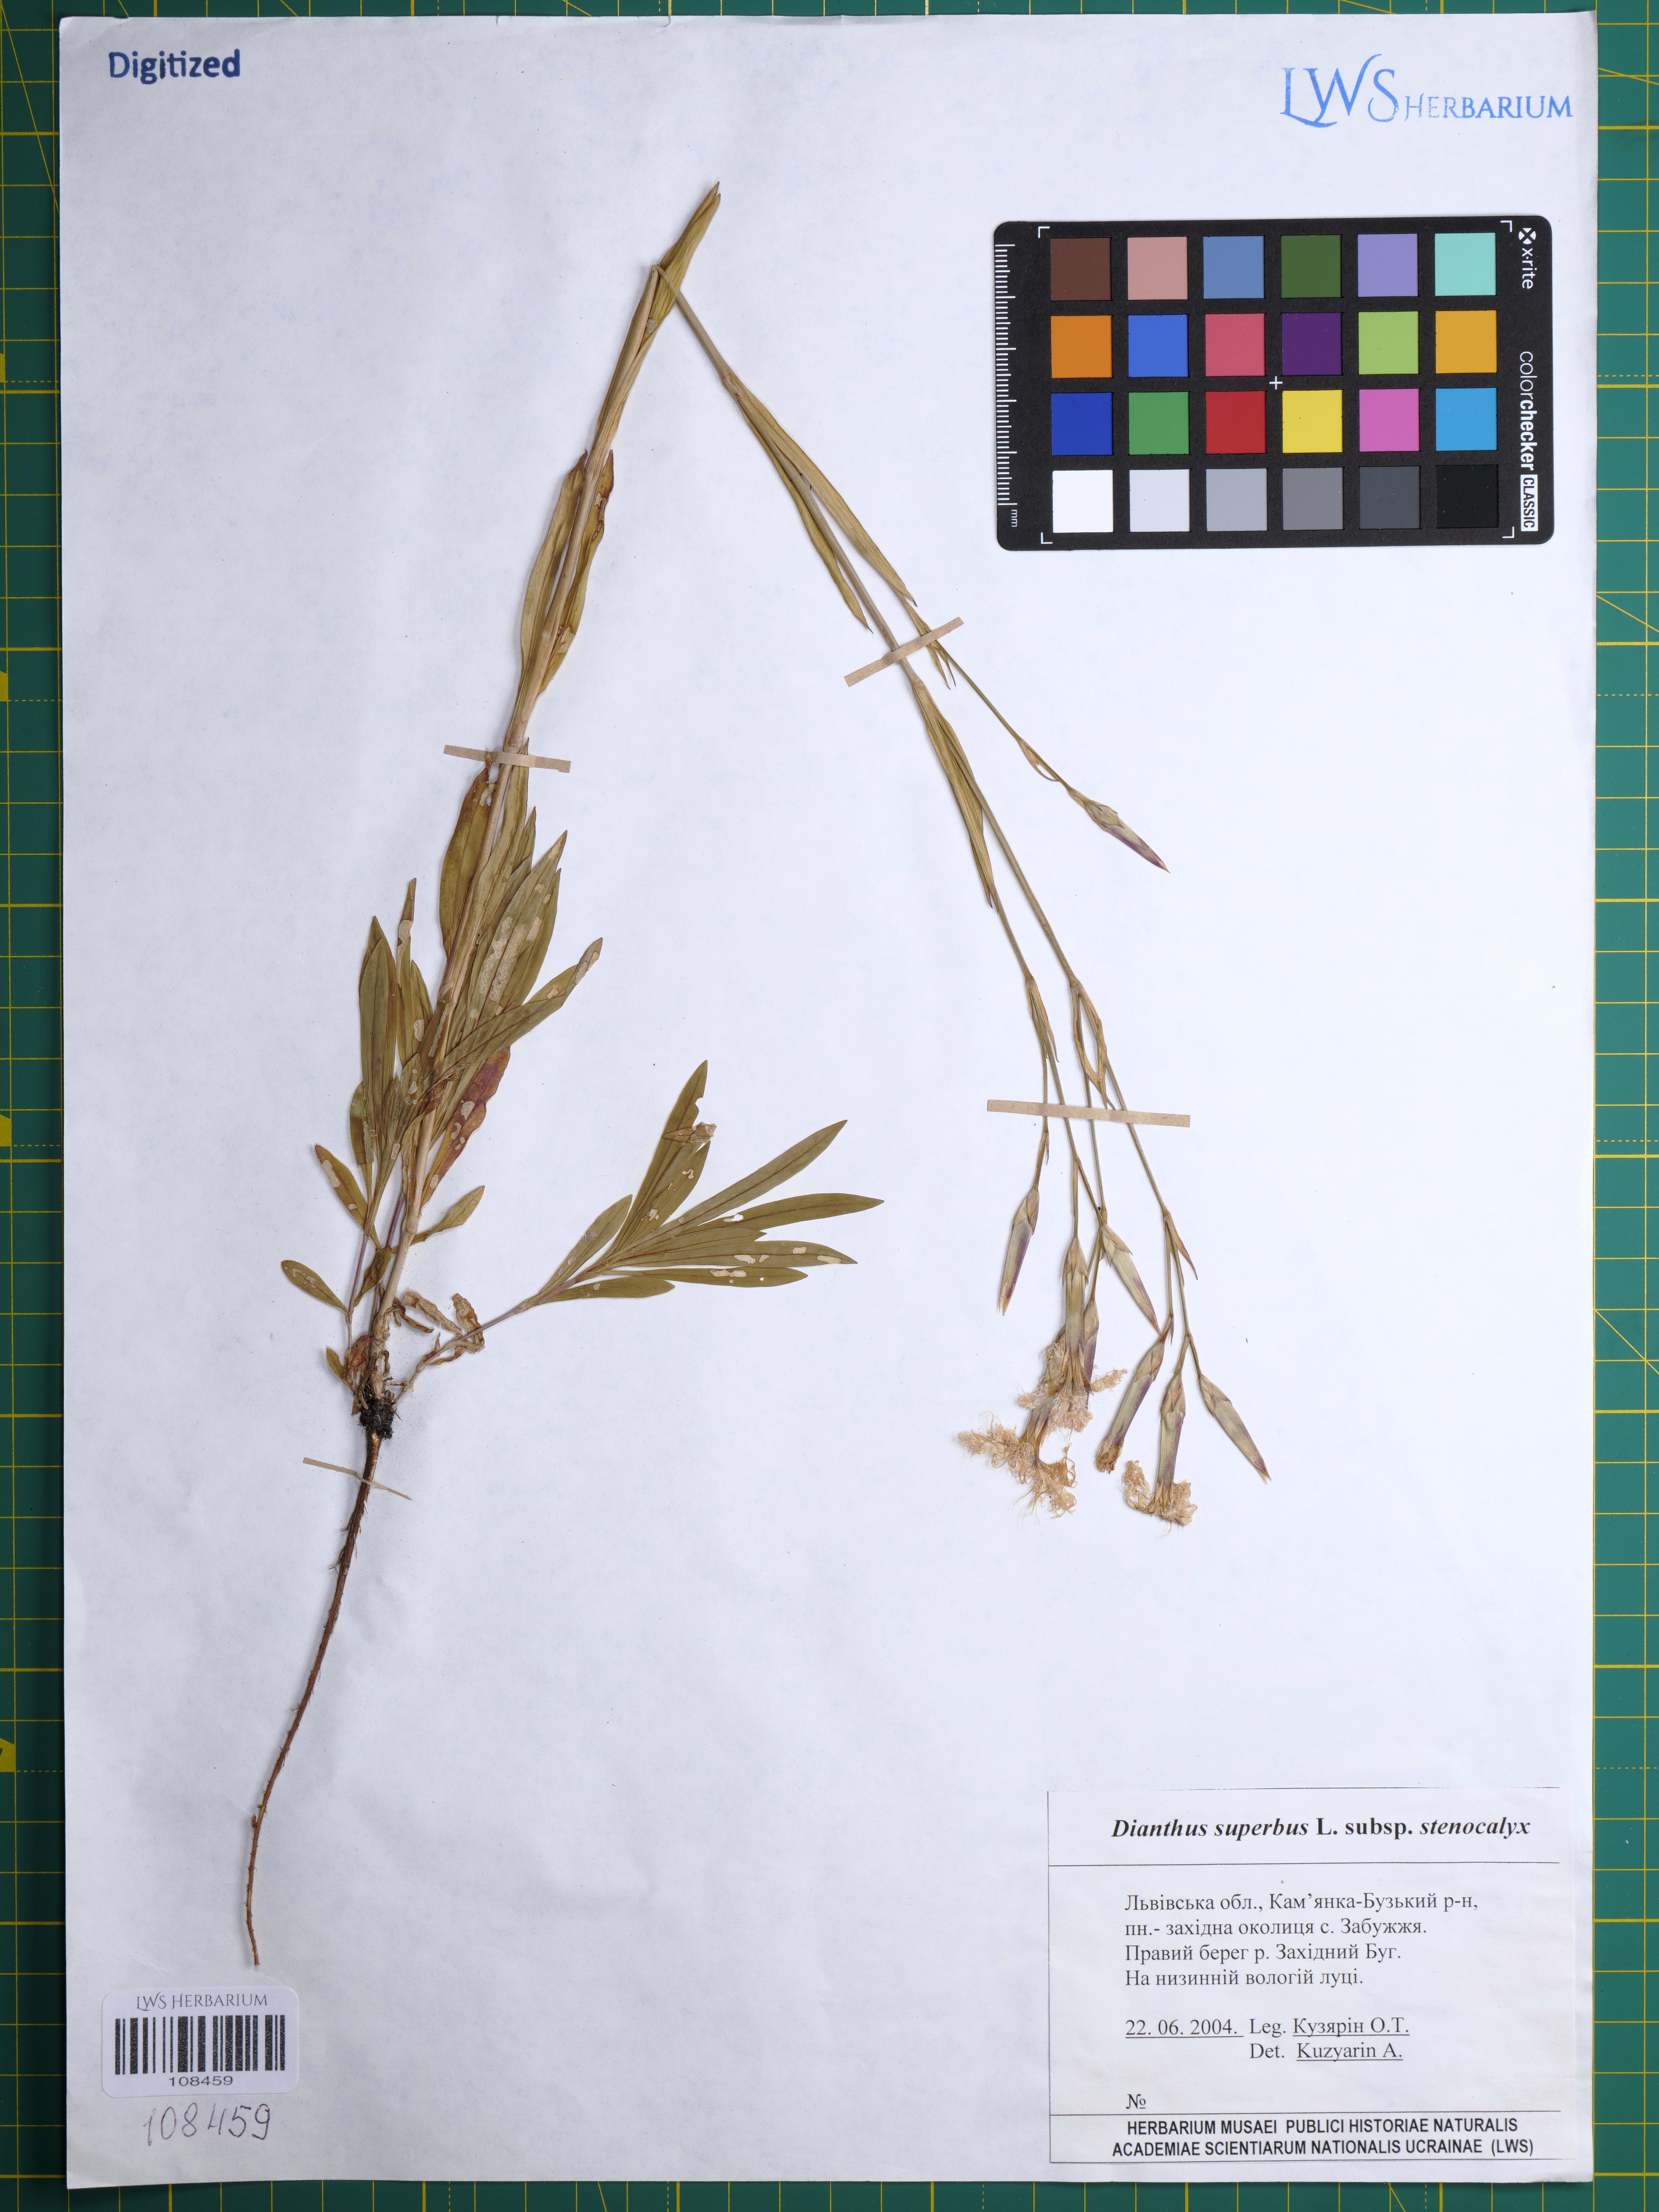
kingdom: Plantae
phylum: Tracheophyta
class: Magnoliopsida
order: Caryophyllales
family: Caryophyllaceae
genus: Dianthus
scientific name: Dianthus superbus
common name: Fringed pink
